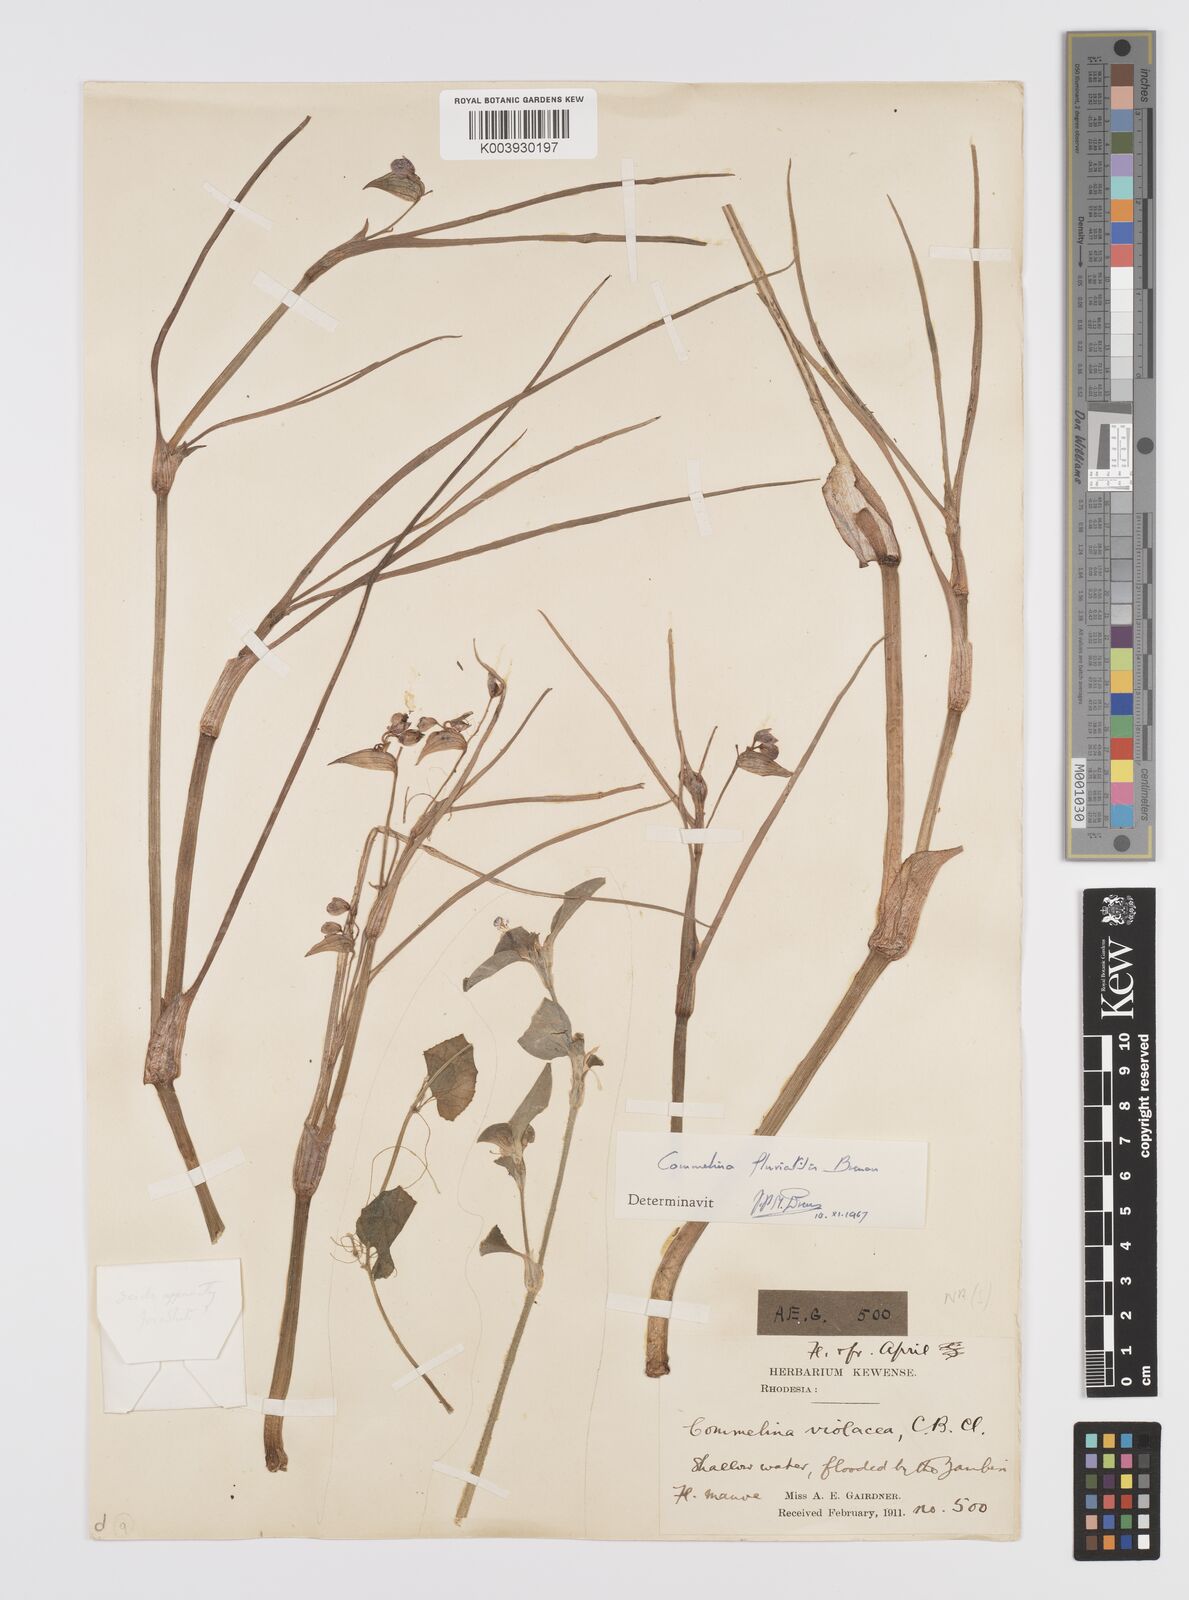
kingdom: Plantae
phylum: Tracheophyta
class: Liliopsida
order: Commelinales
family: Commelinaceae
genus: Commelina
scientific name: Commelina fluviatilis
